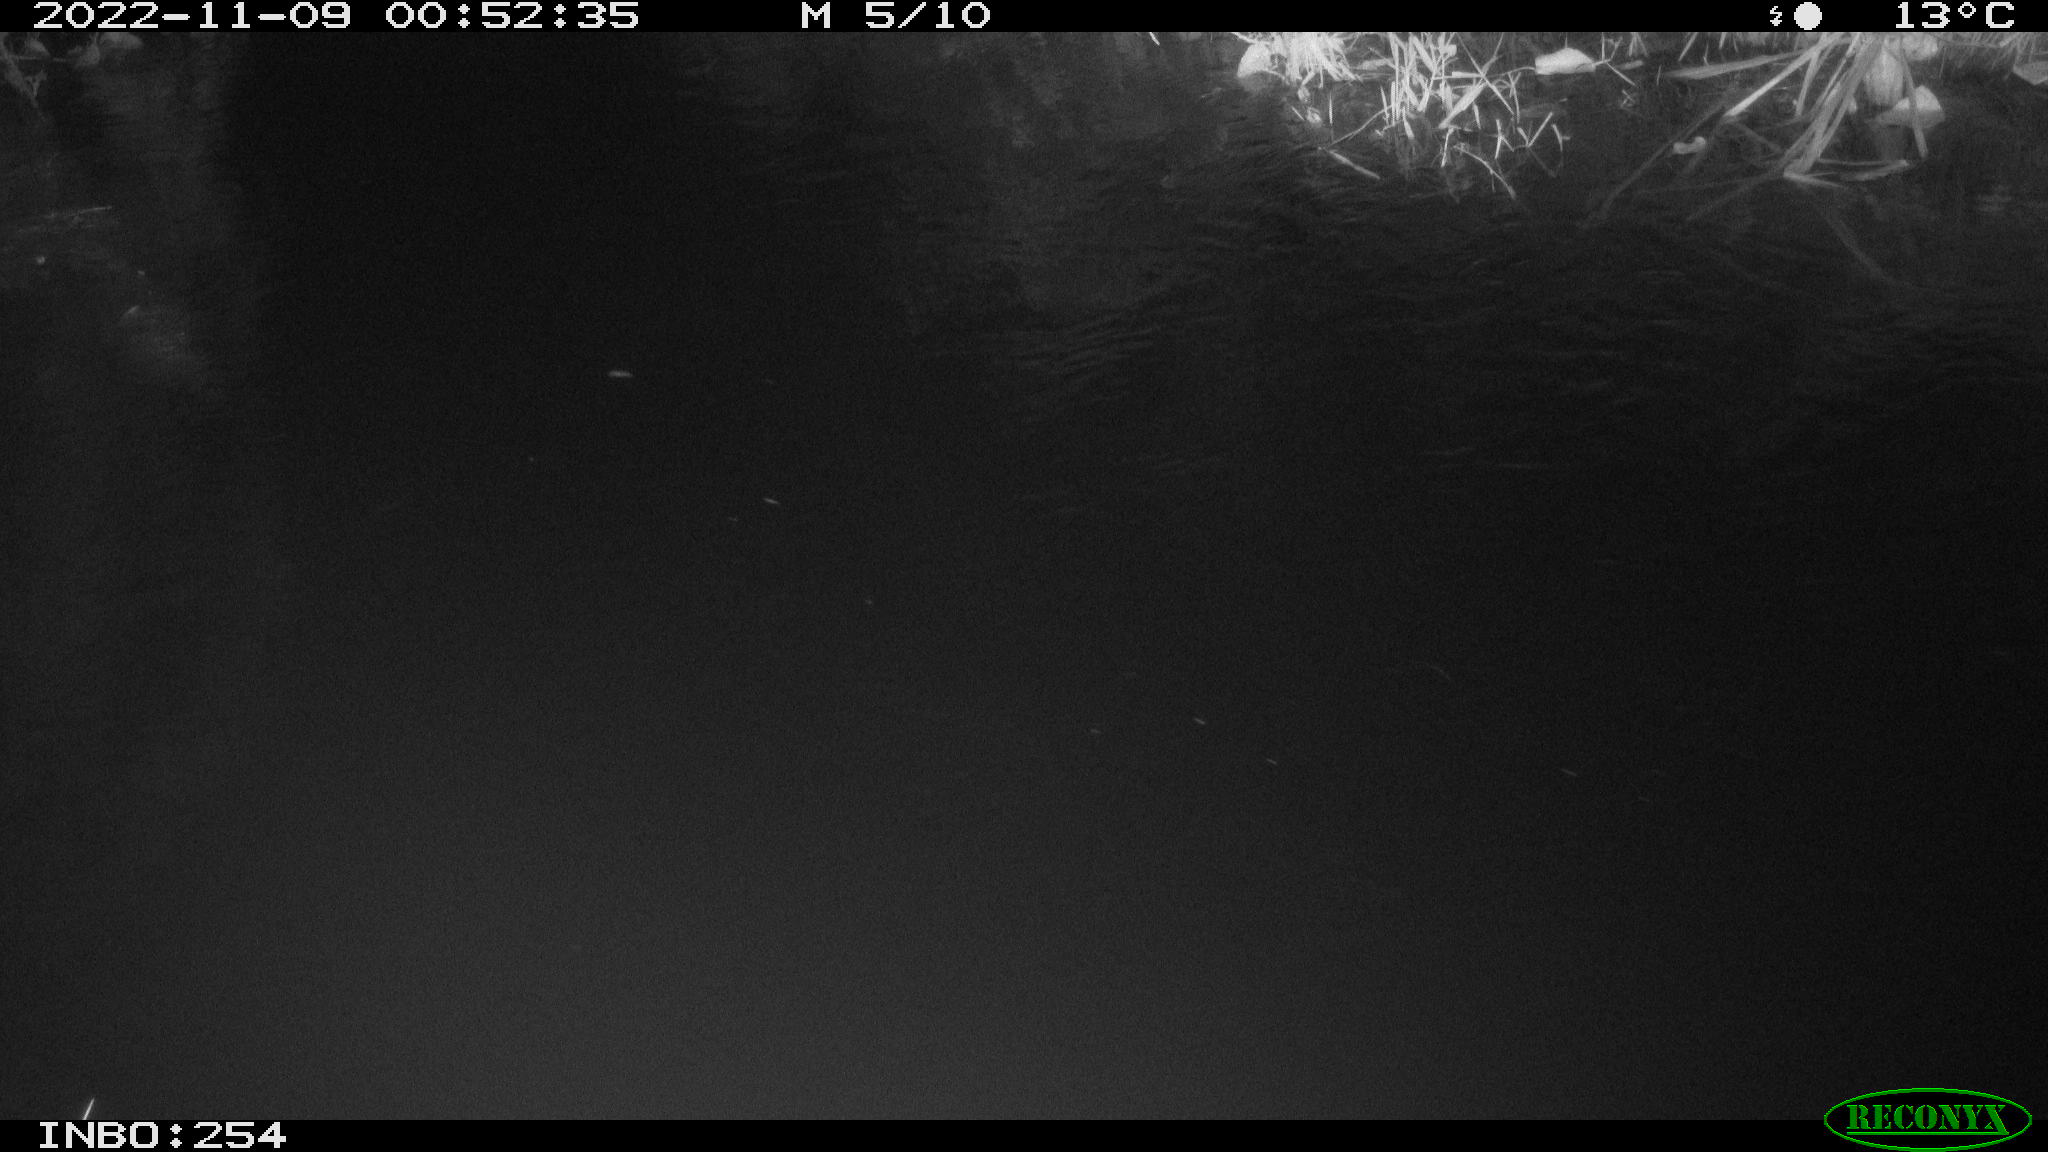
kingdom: Animalia
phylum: Chordata
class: Aves
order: Anseriformes
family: Anatidae
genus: Anas
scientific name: Anas
